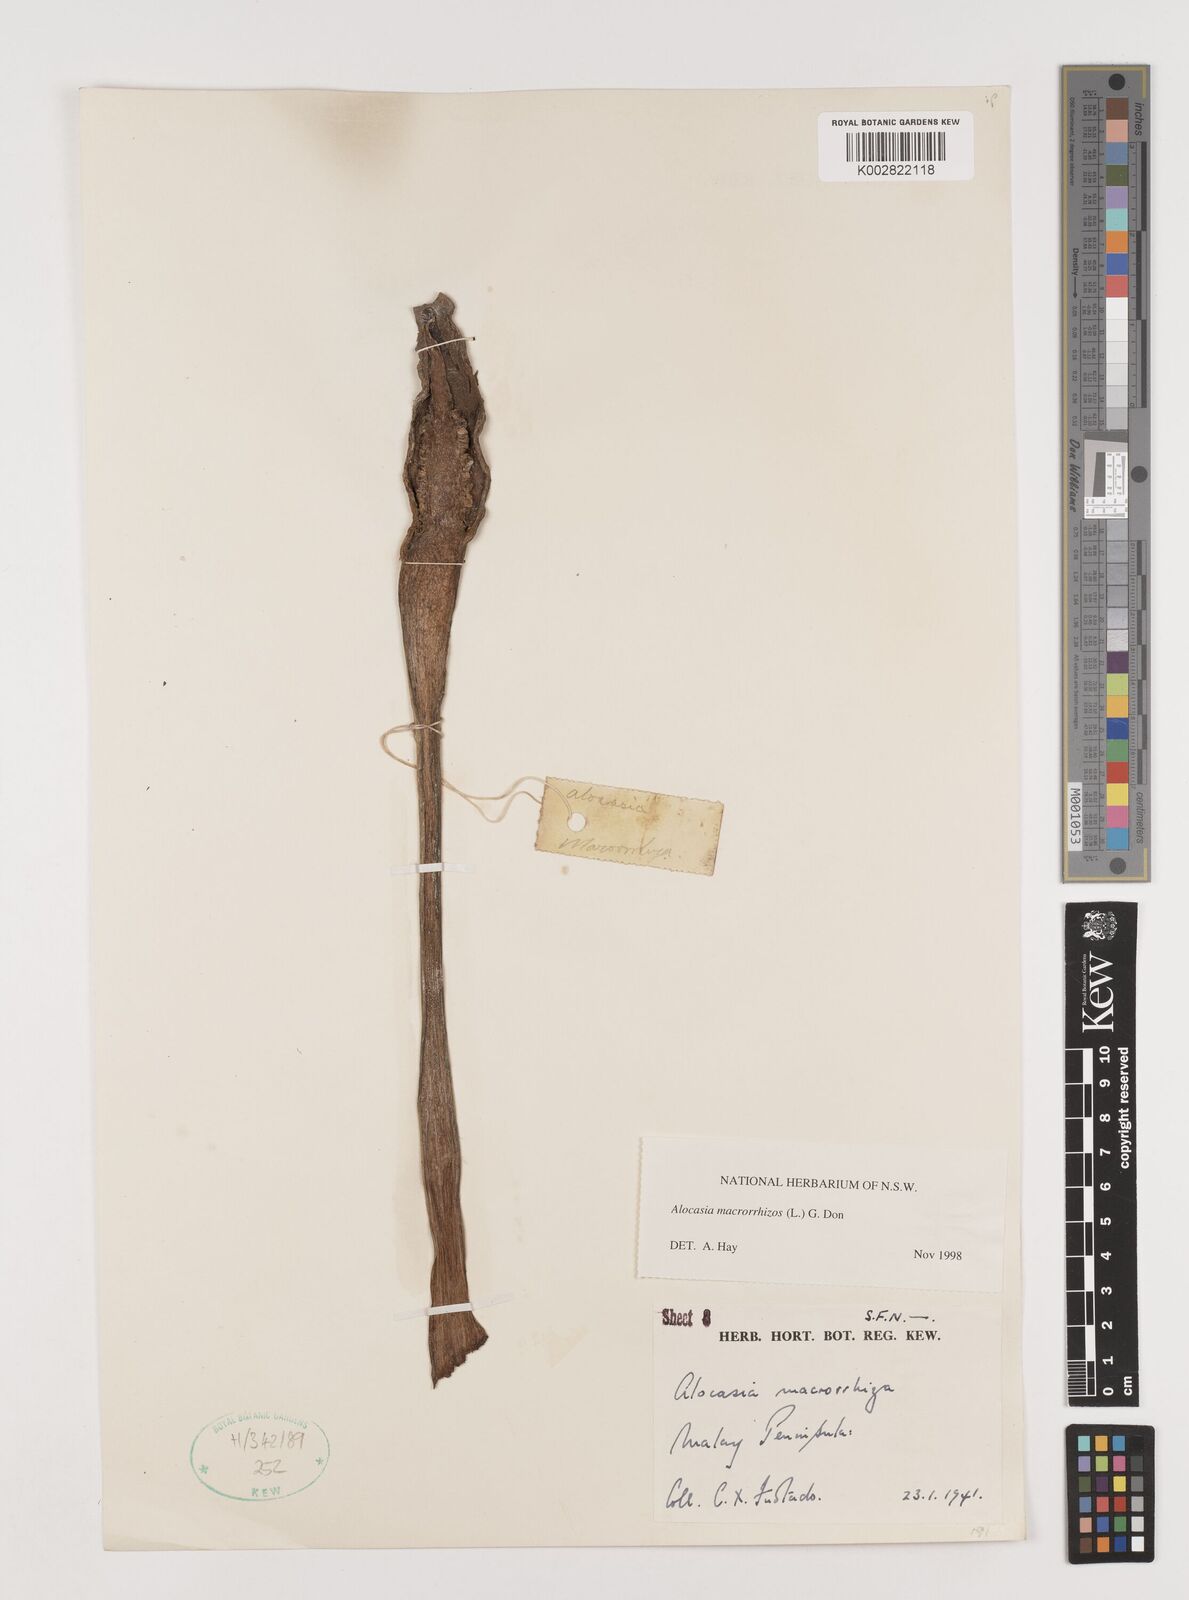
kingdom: Plantae
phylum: Tracheophyta
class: Liliopsida
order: Alismatales
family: Araceae
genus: Alocasia
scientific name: Alocasia macrorrhizos
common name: Giant taro
